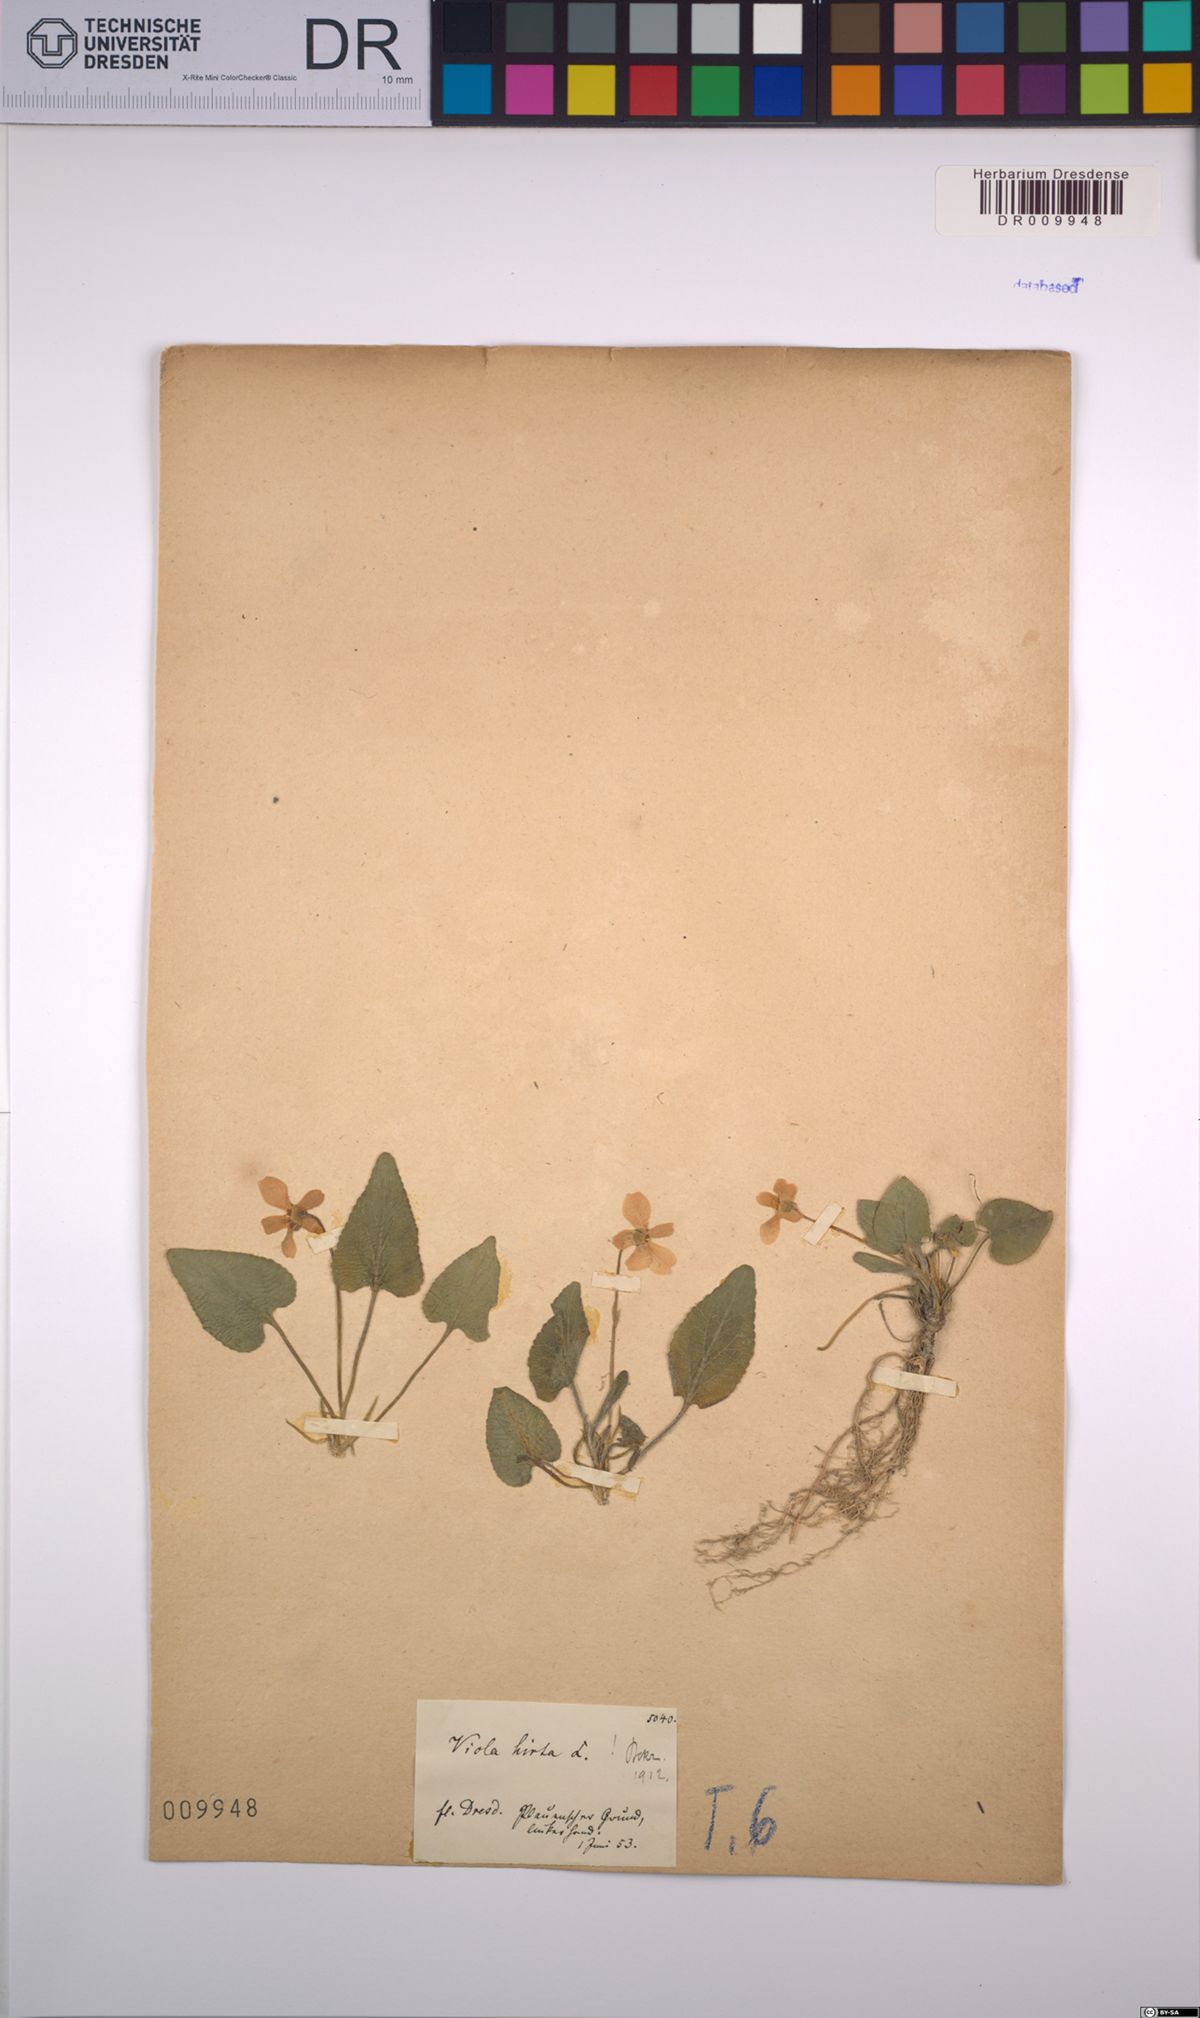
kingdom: Plantae
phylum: Tracheophyta
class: Magnoliopsida
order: Malpighiales
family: Violaceae
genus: Viola
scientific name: Viola hirta
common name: Hairy violet
